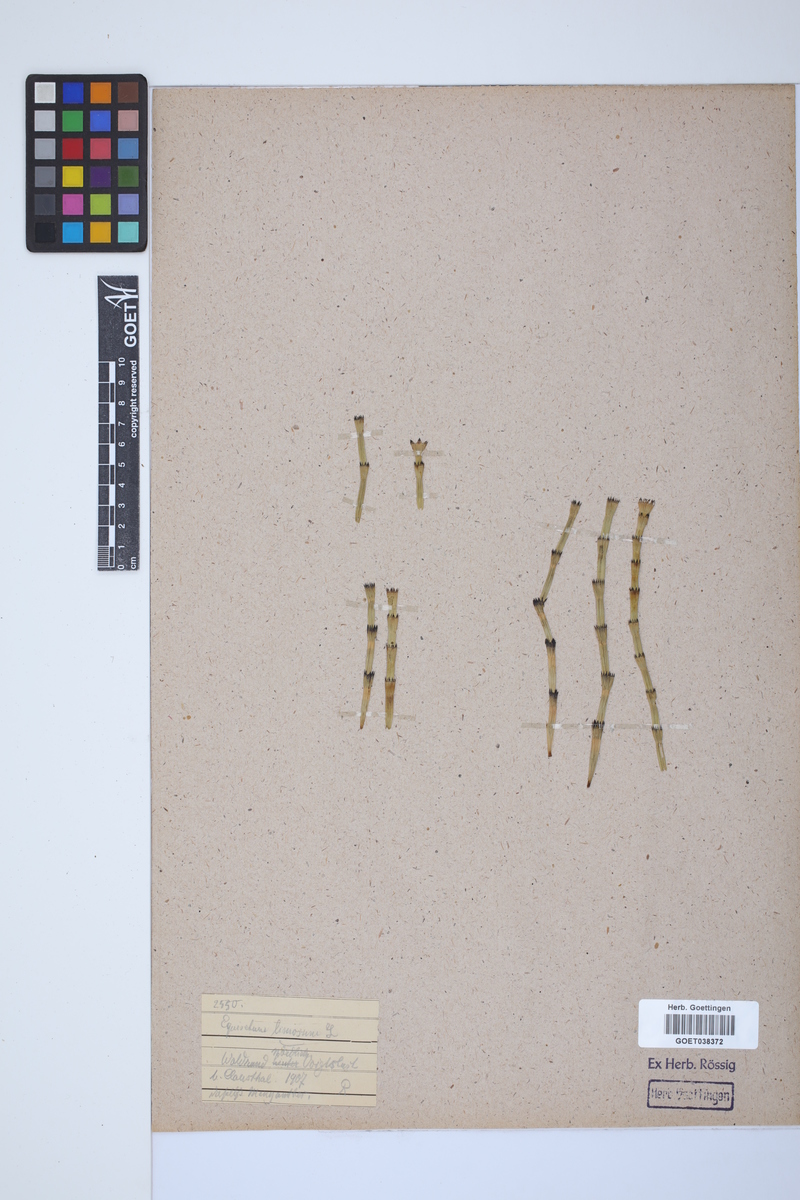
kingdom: Plantae
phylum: Tracheophyta
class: Polypodiopsida
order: Equisetales
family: Equisetaceae
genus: Equisetum
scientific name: Equisetum fluviatile
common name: Water horsetail
